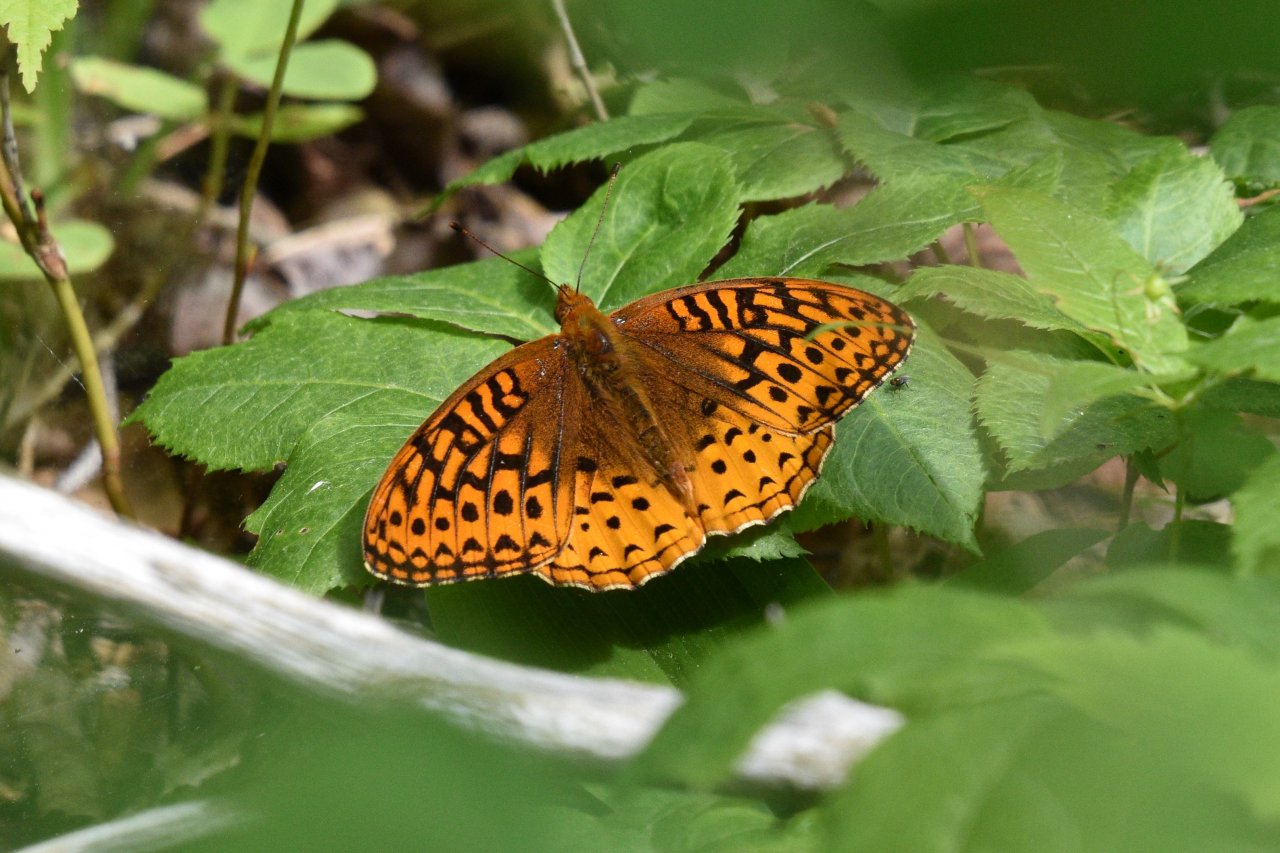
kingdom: Animalia
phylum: Arthropoda
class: Insecta
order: Lepidoptera
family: Nymphalidae
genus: Speyeria
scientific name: Speyeria cybele
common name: Great Spangled Fritillary
